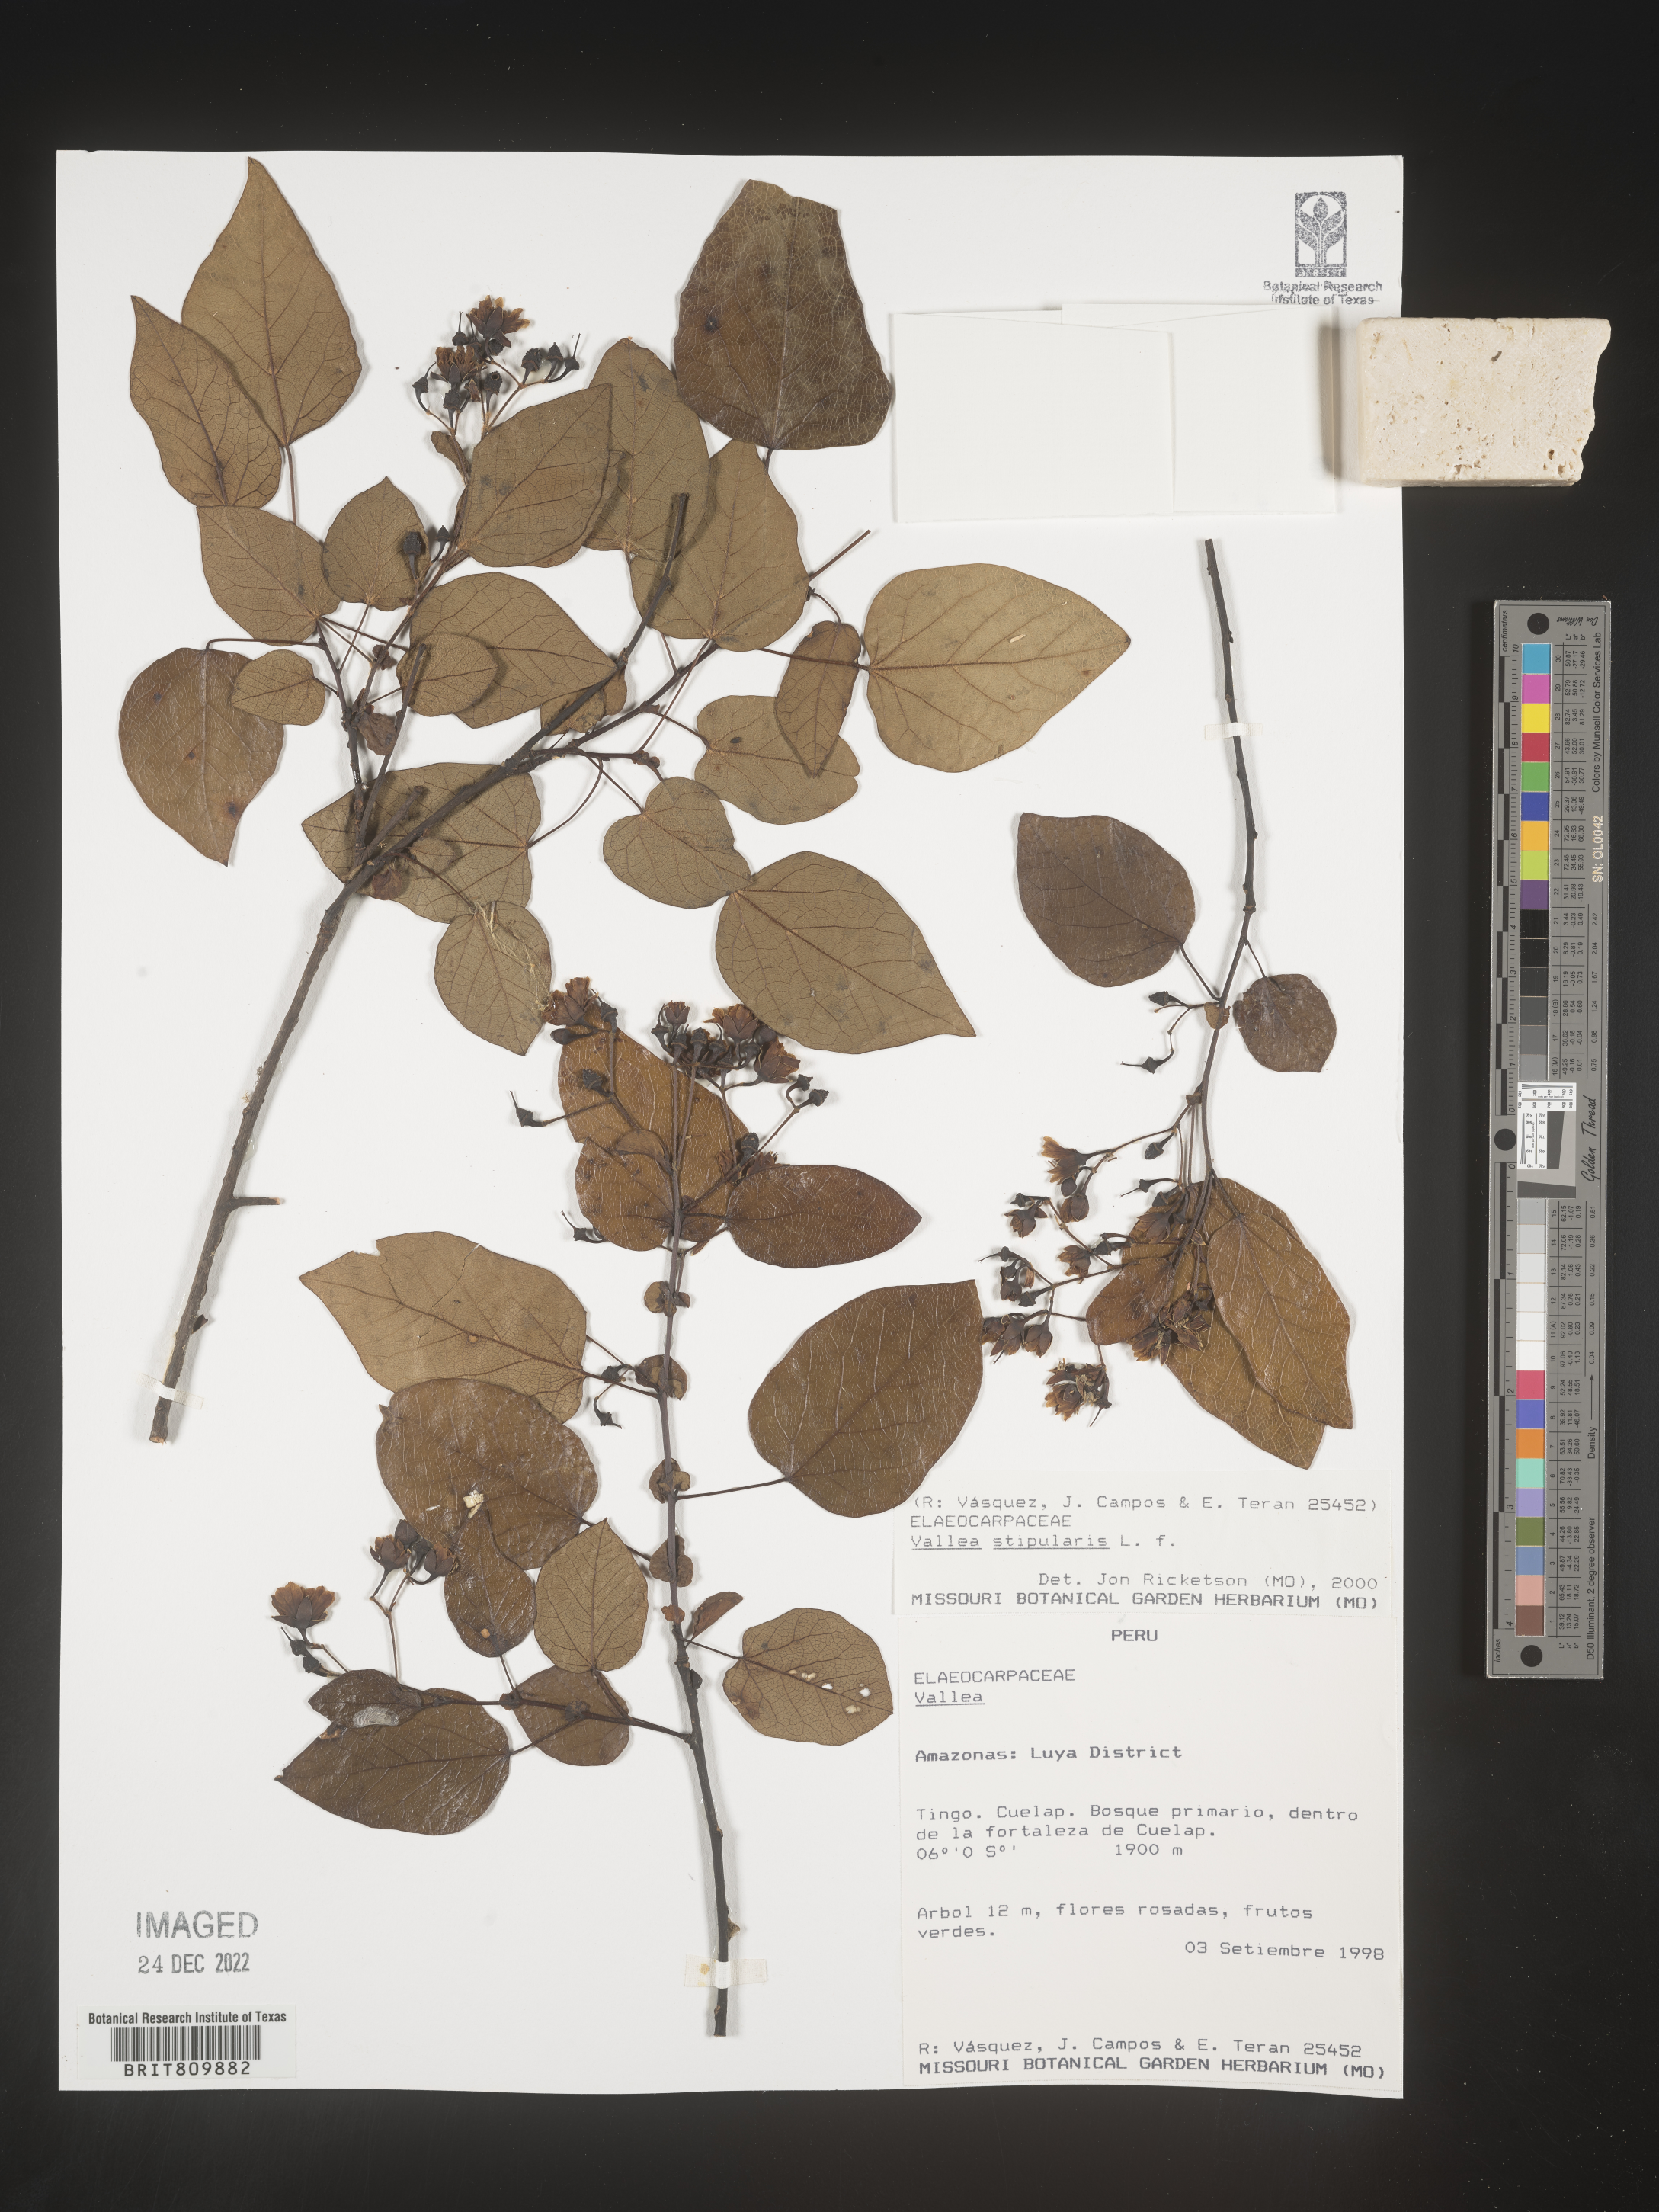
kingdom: Plantae
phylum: Tracheophyta
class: Magnoliopsida
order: Oxalidales
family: Elaeocarpaceae
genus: Vallea
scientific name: Vallea
